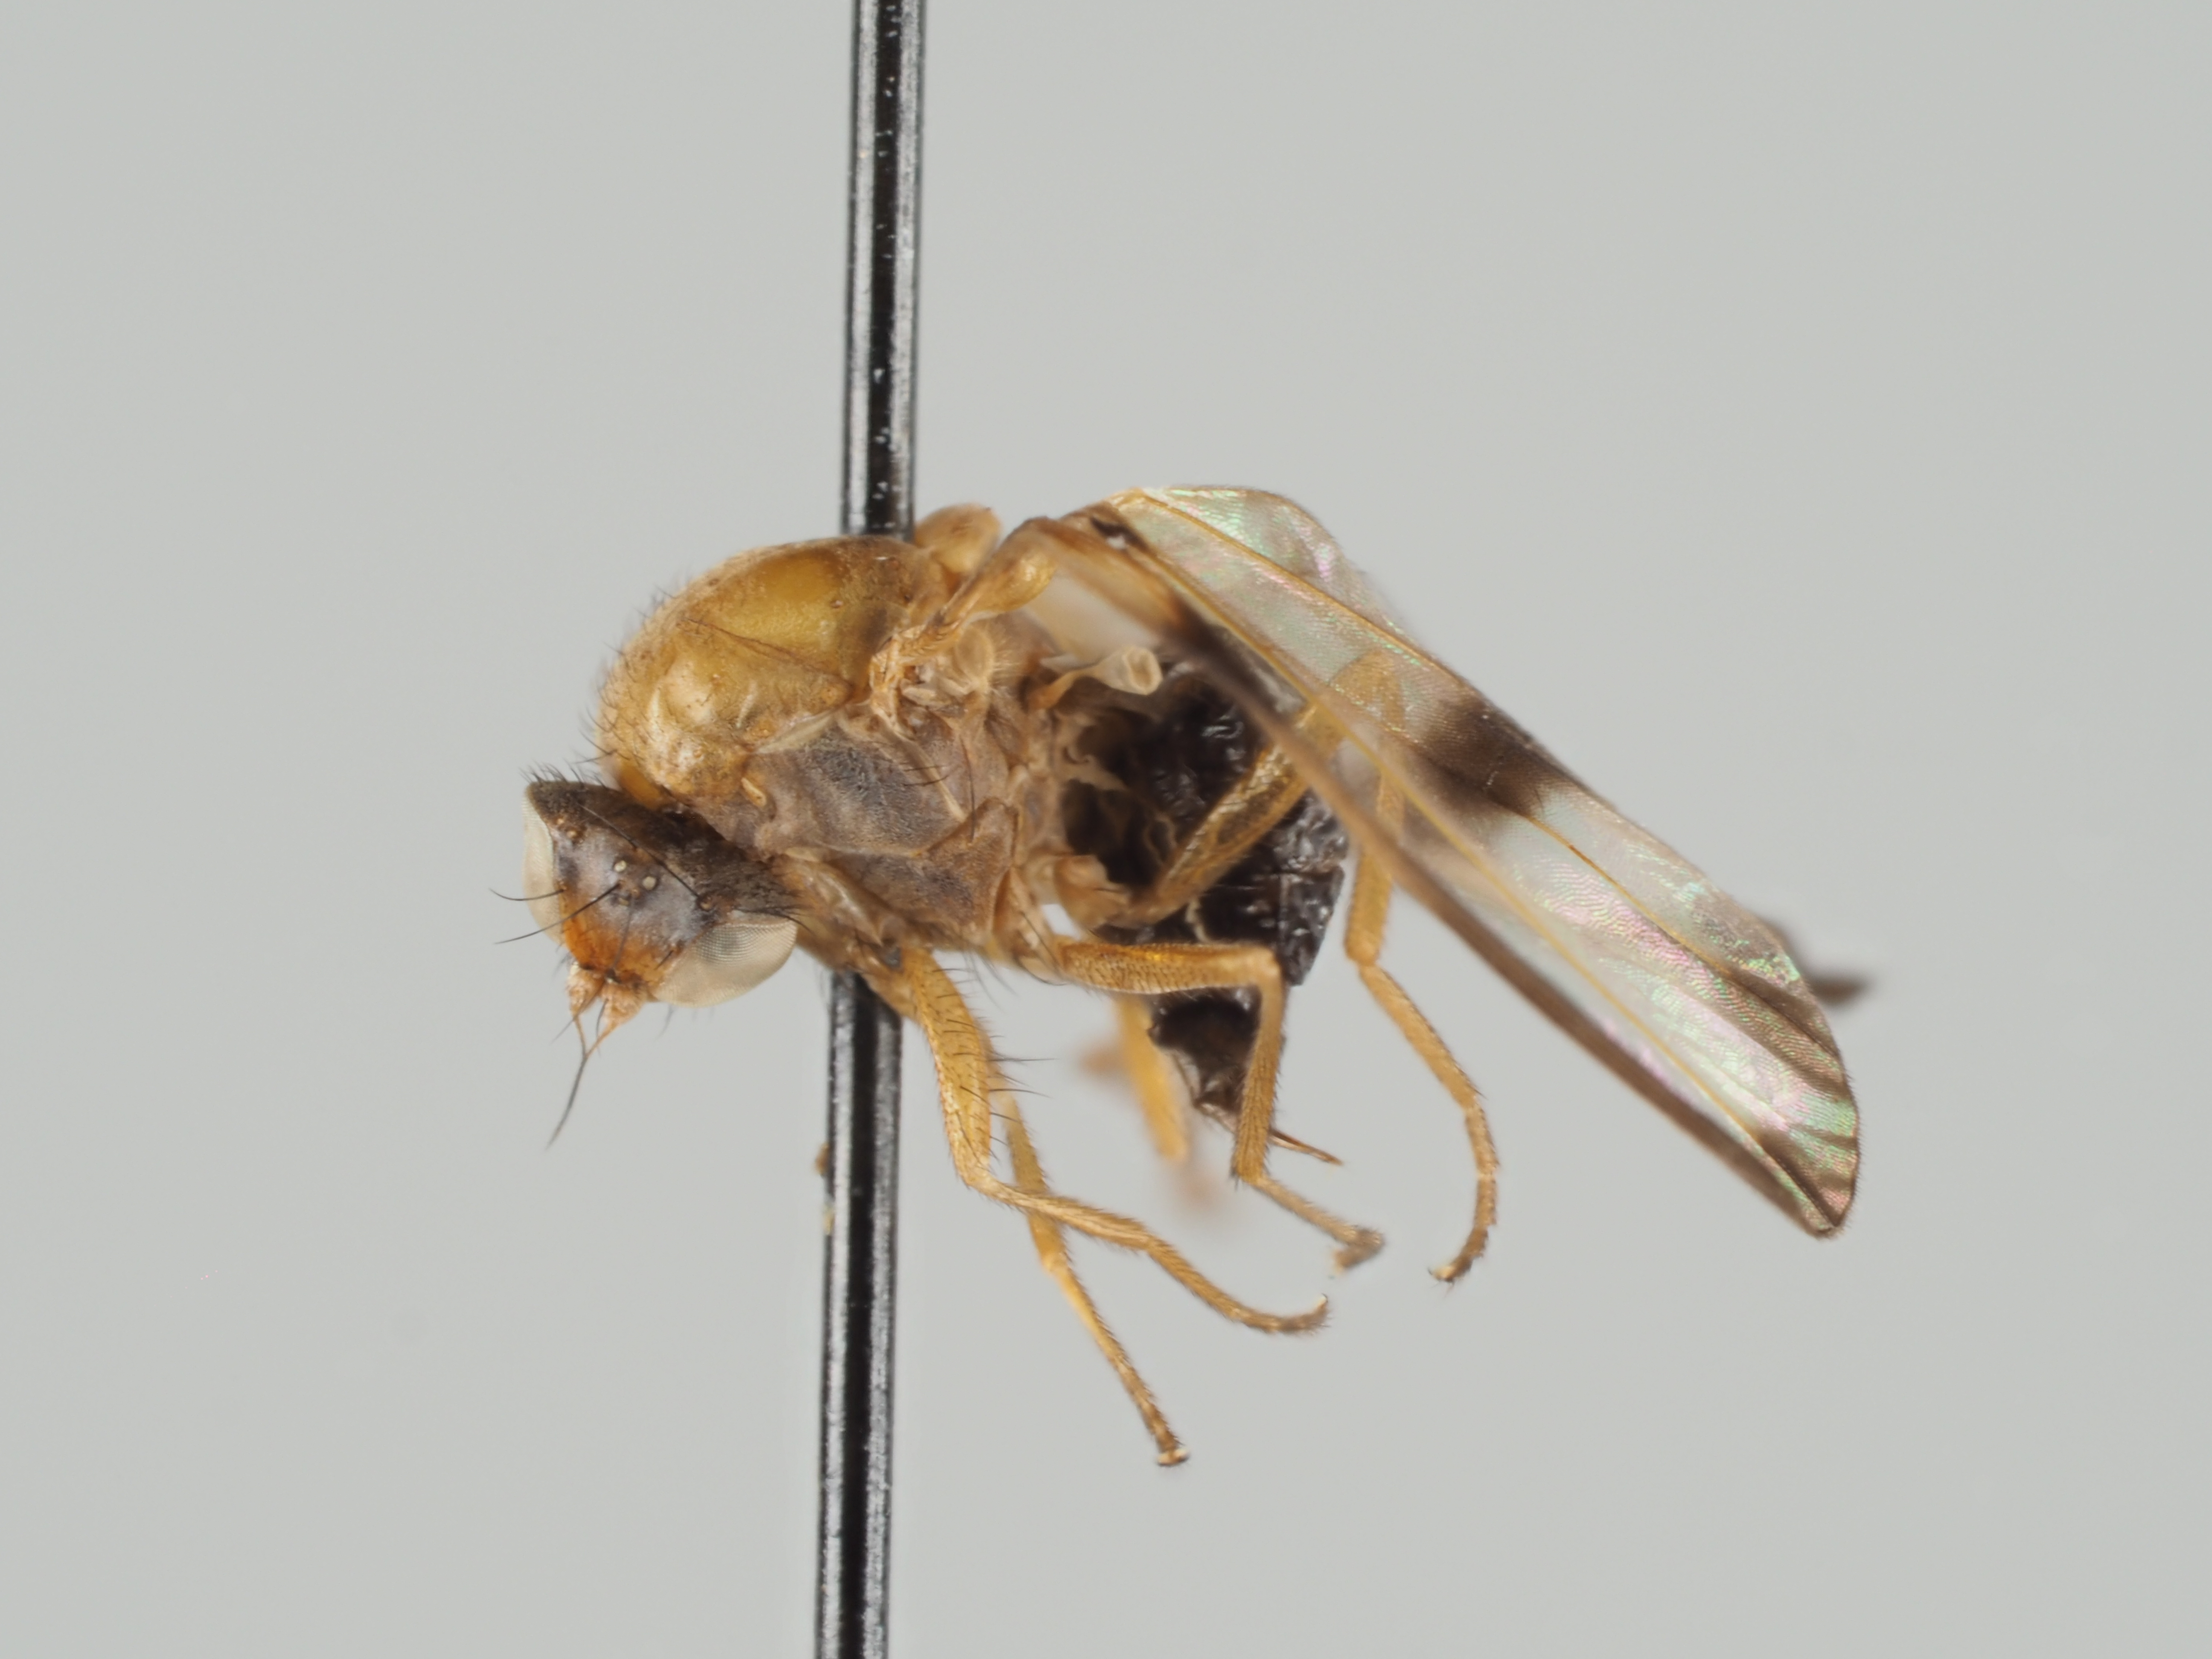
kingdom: Animalia
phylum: Arthropoda
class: Insecta
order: Diptera
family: Pallopteridae
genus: Toxonevra
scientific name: Toxonevra venusta
